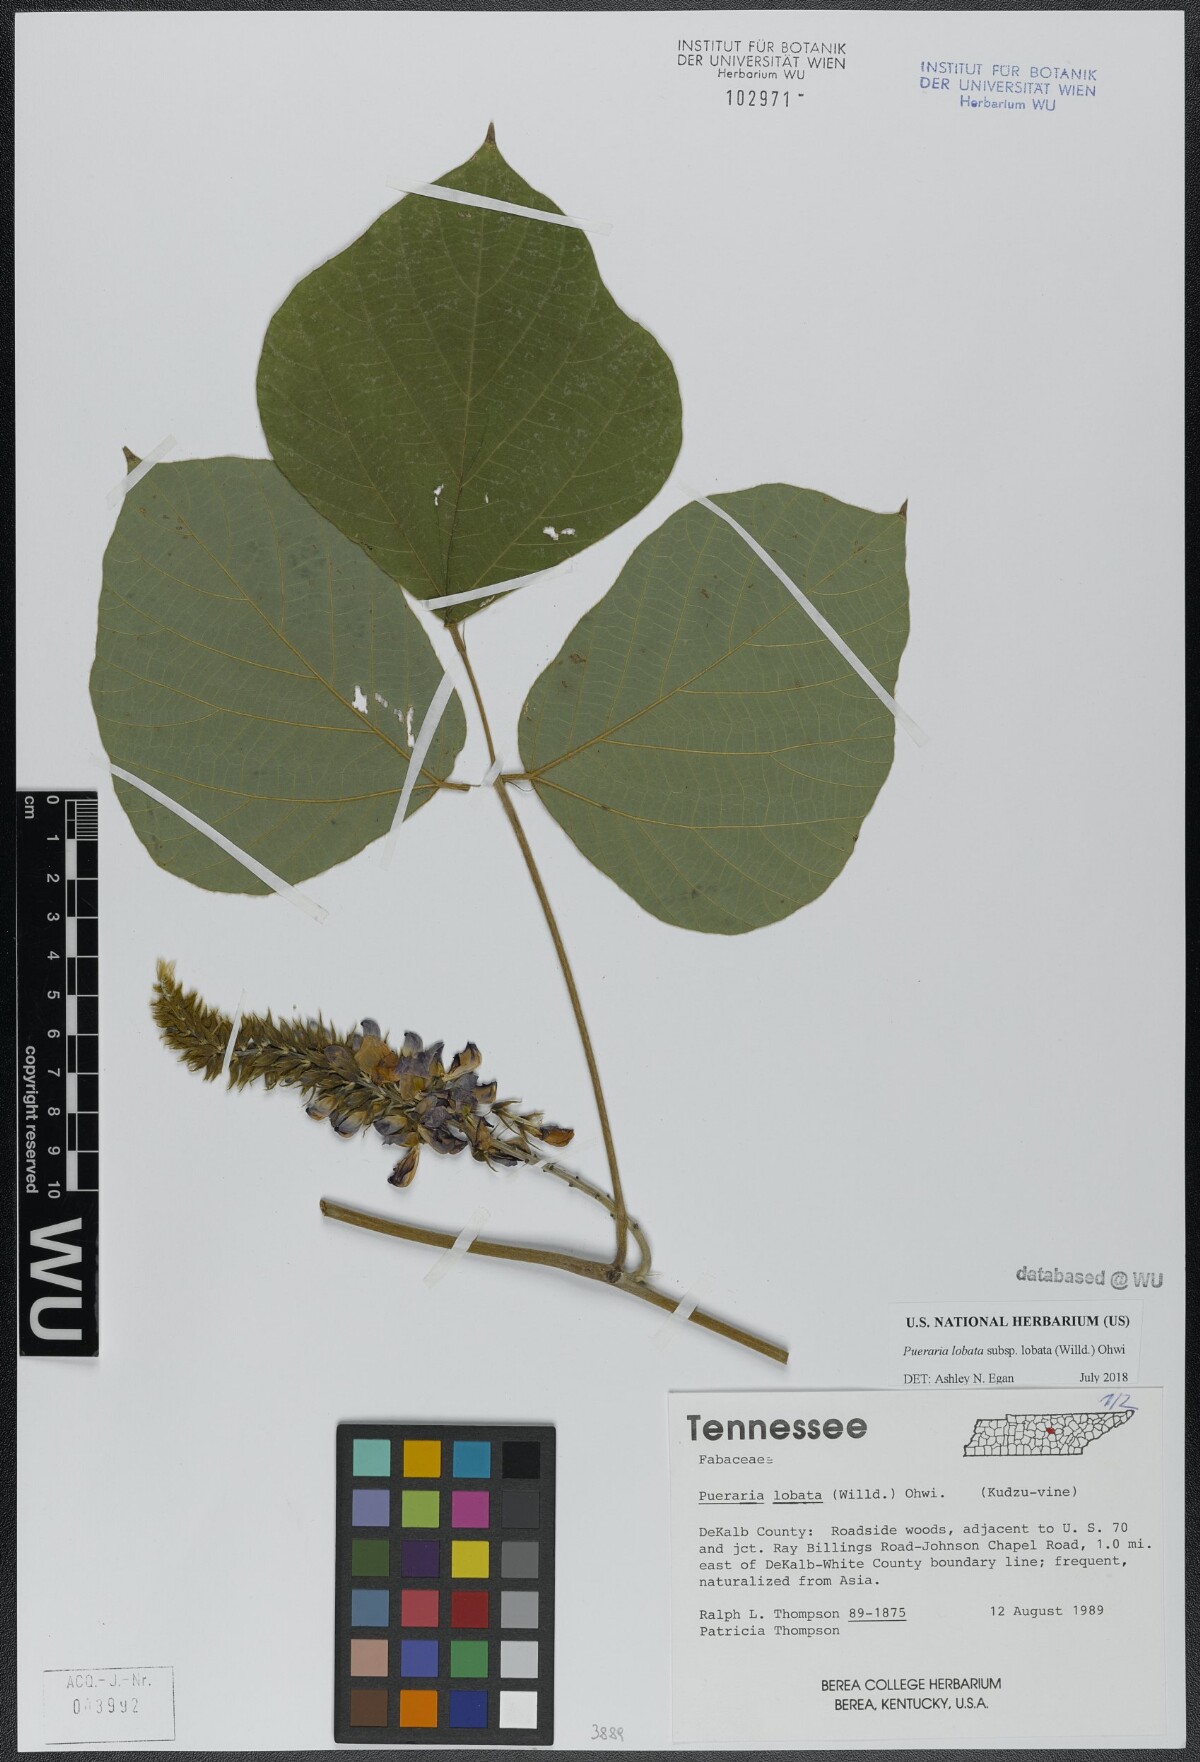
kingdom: Plantae
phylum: Tracheophyta
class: Magnoliopsida
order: Fabales
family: Fabaceae
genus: Pueraria
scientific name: Pueraria montana
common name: Kudzu
